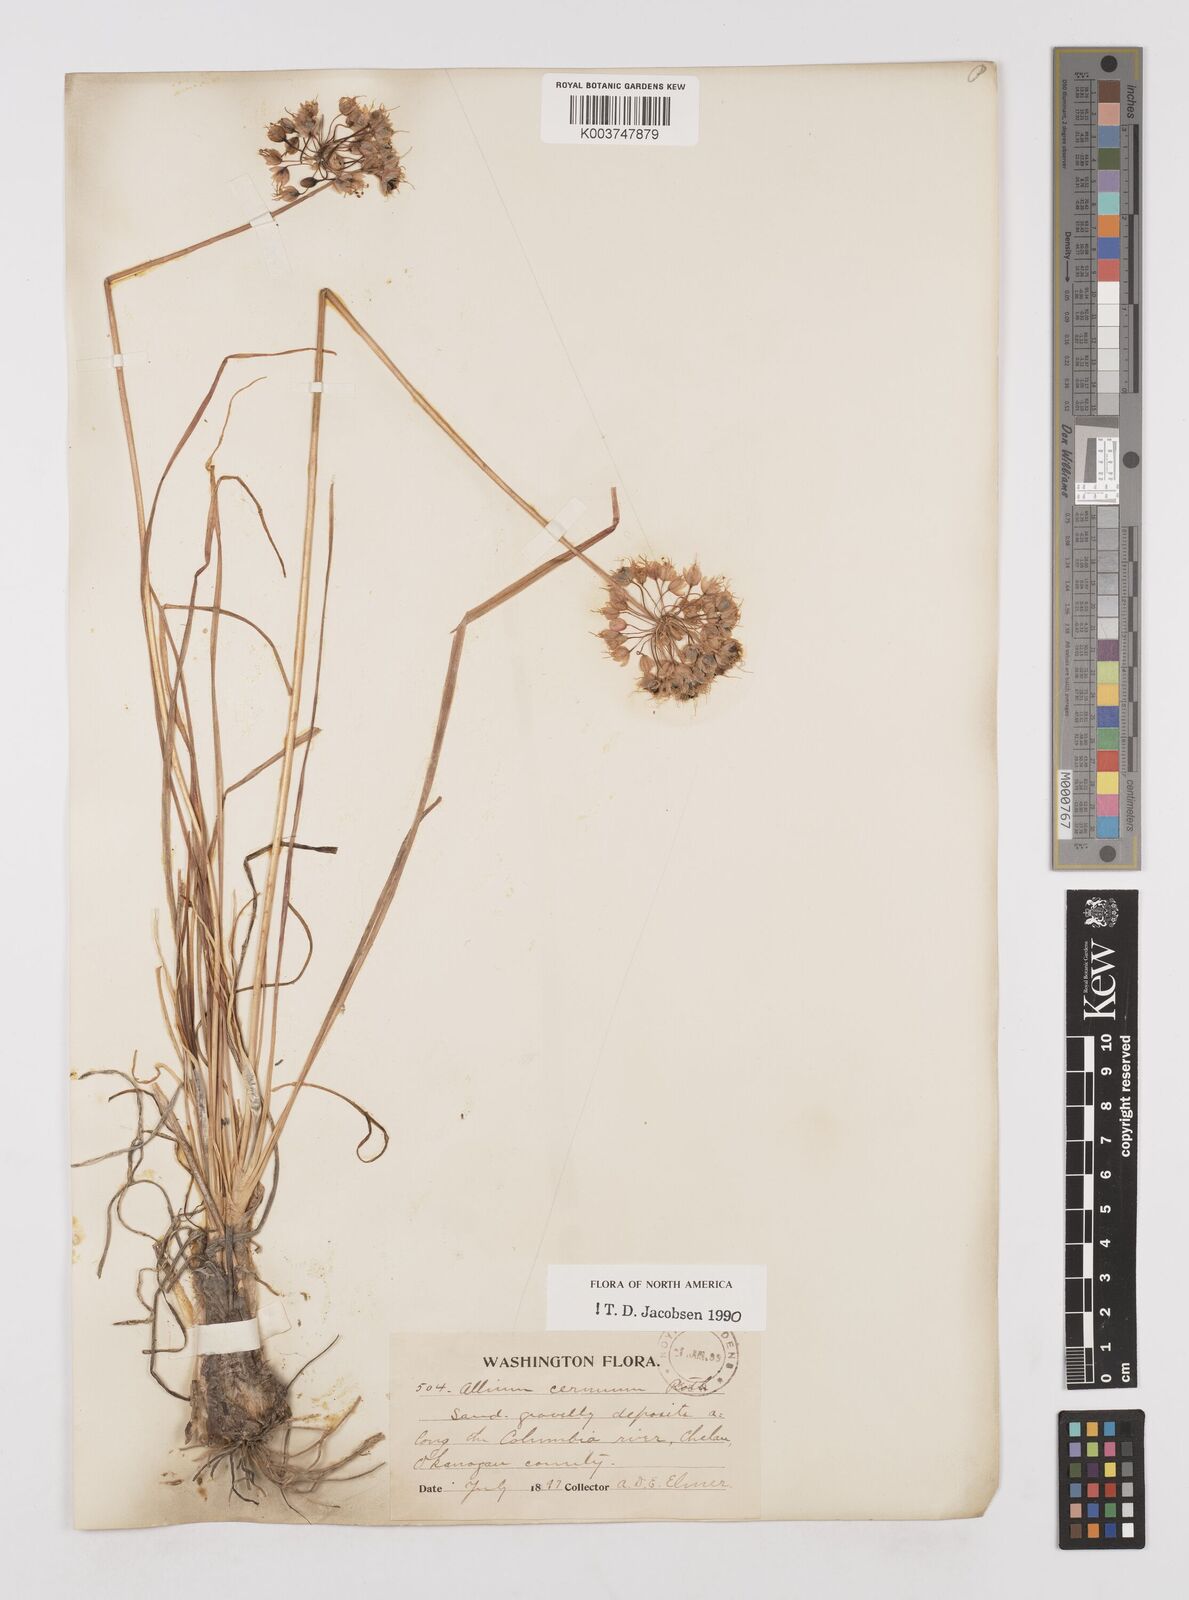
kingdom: Plantae
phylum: Tracheophyta
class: Liliopsida
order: Asparagales
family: Amaryllidaceae
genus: Allium
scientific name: Allium cernuum
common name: Nodding onion
